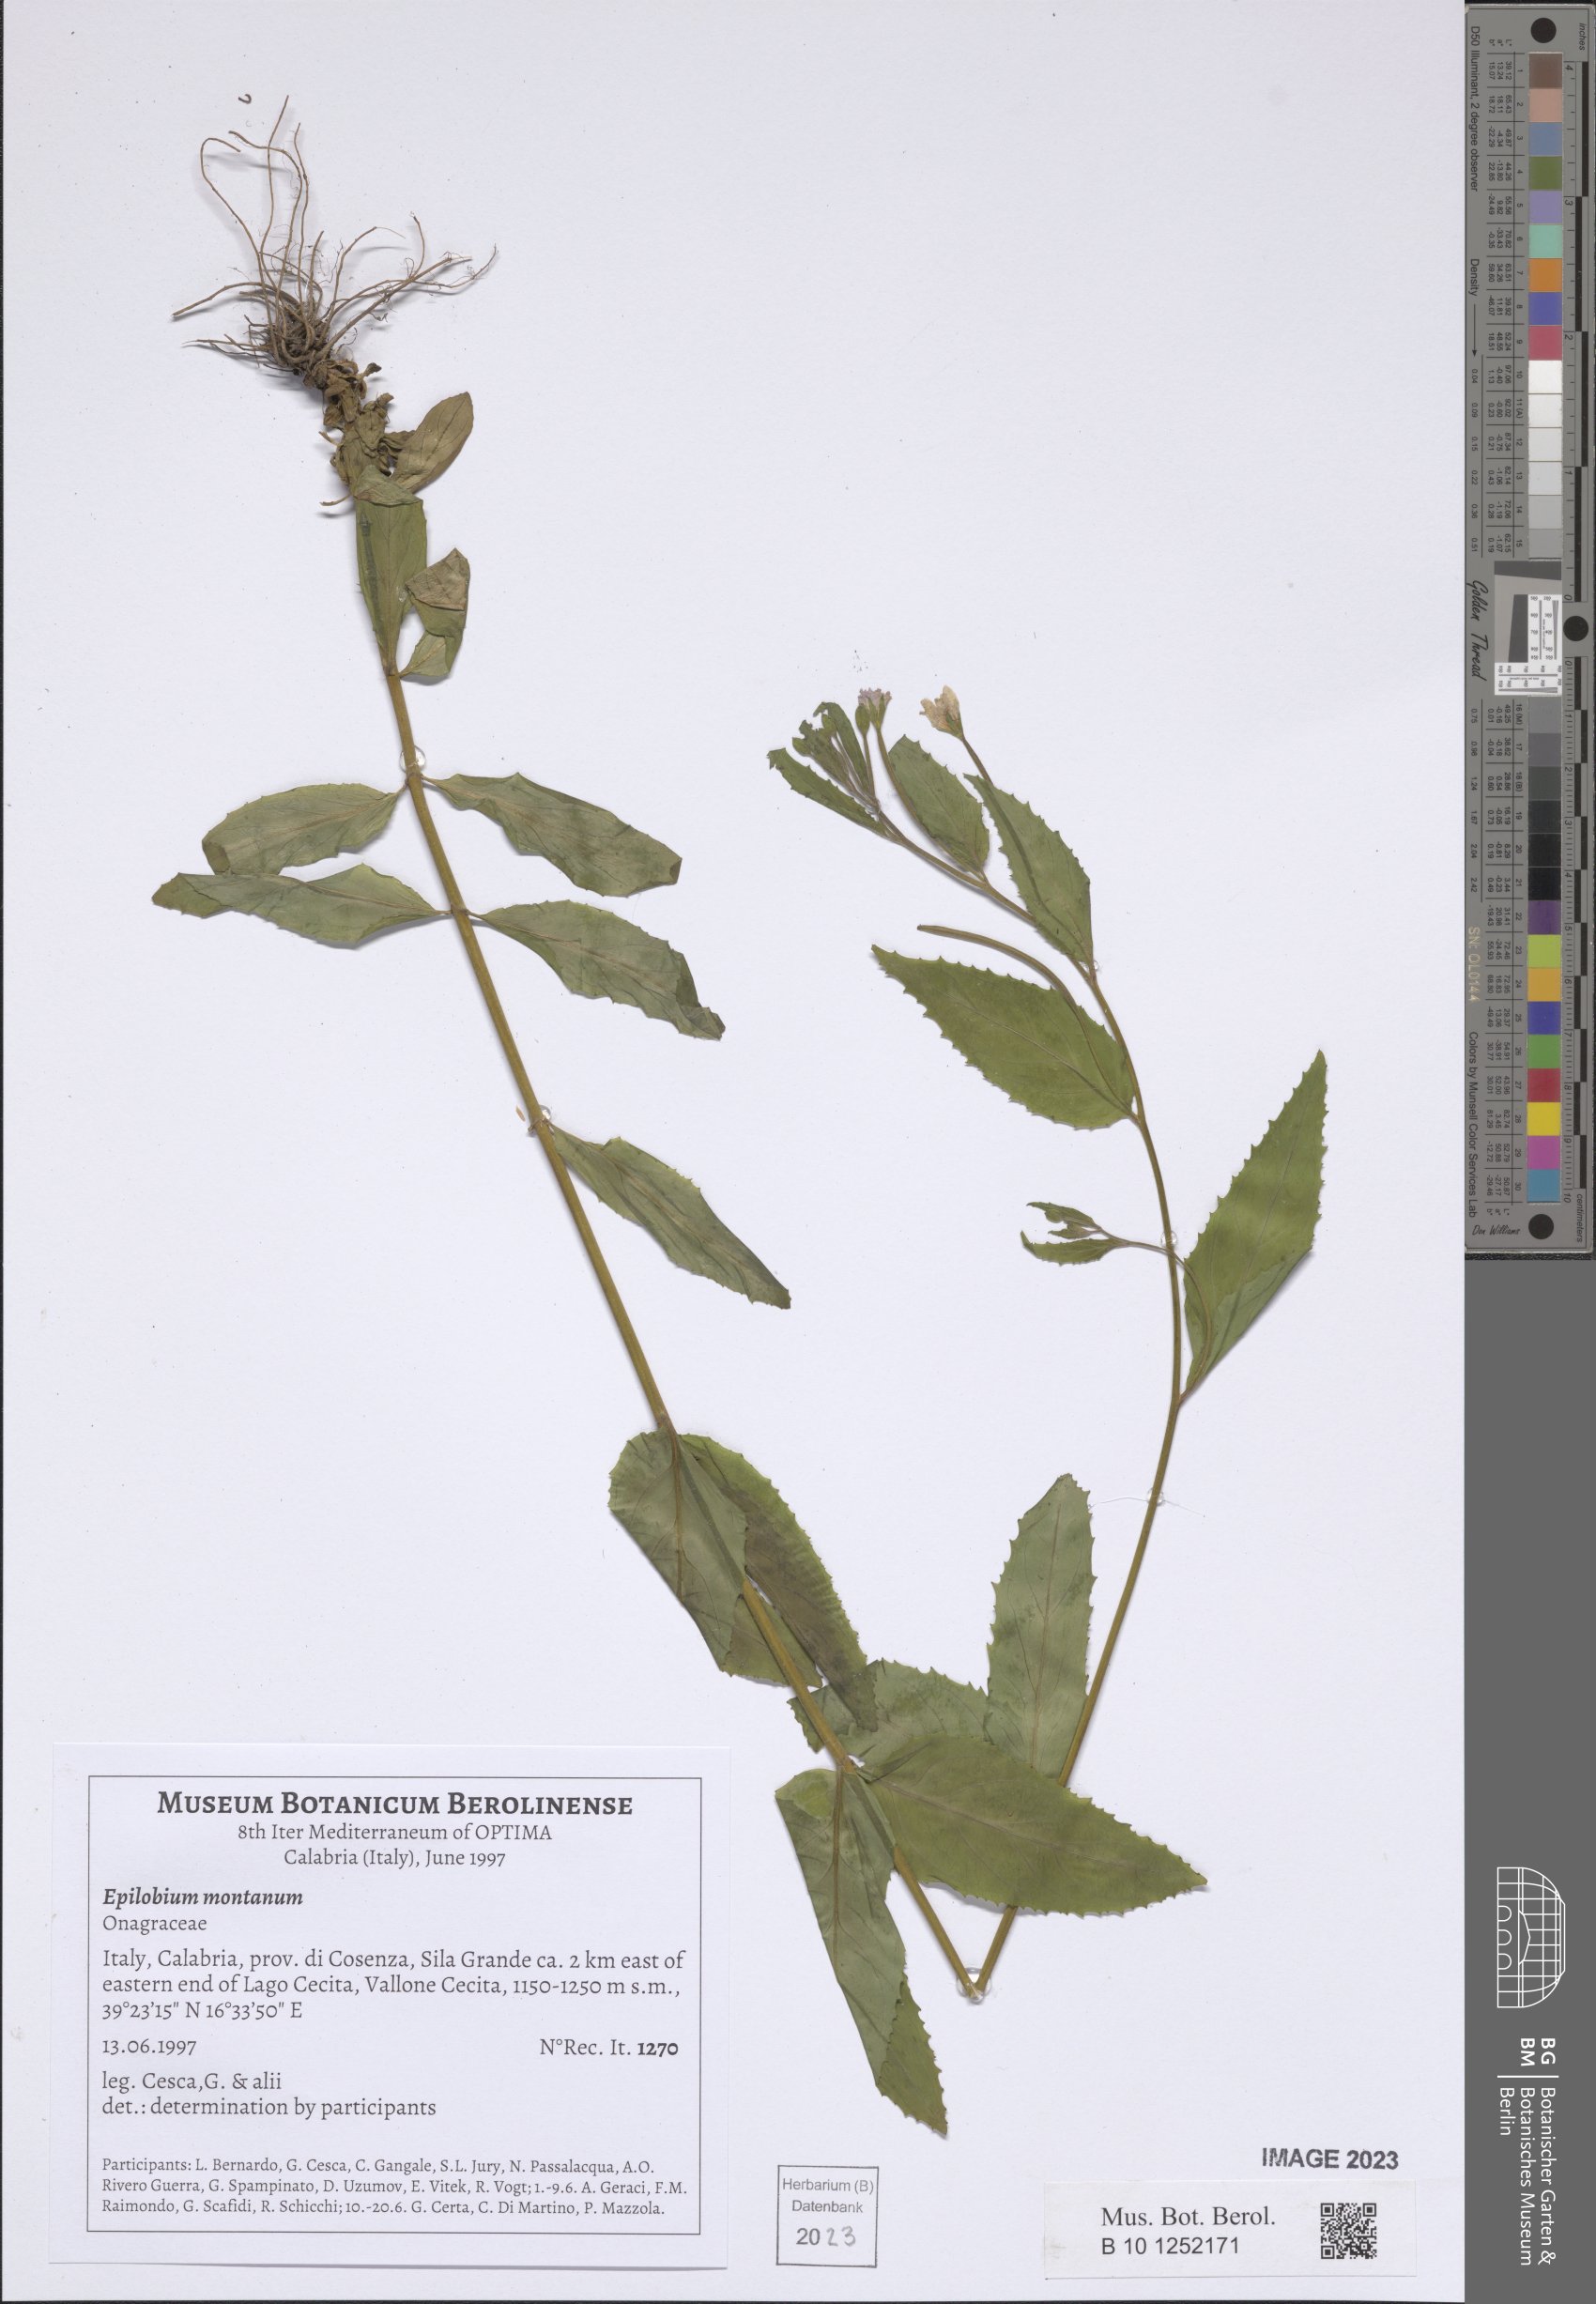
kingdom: Plantae
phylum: Tracheophyta
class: Magnoliopsida
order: Myrtales
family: Onagraceae
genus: Epilobium
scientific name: Epilobium montanum
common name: Broad-leaved willowherb
